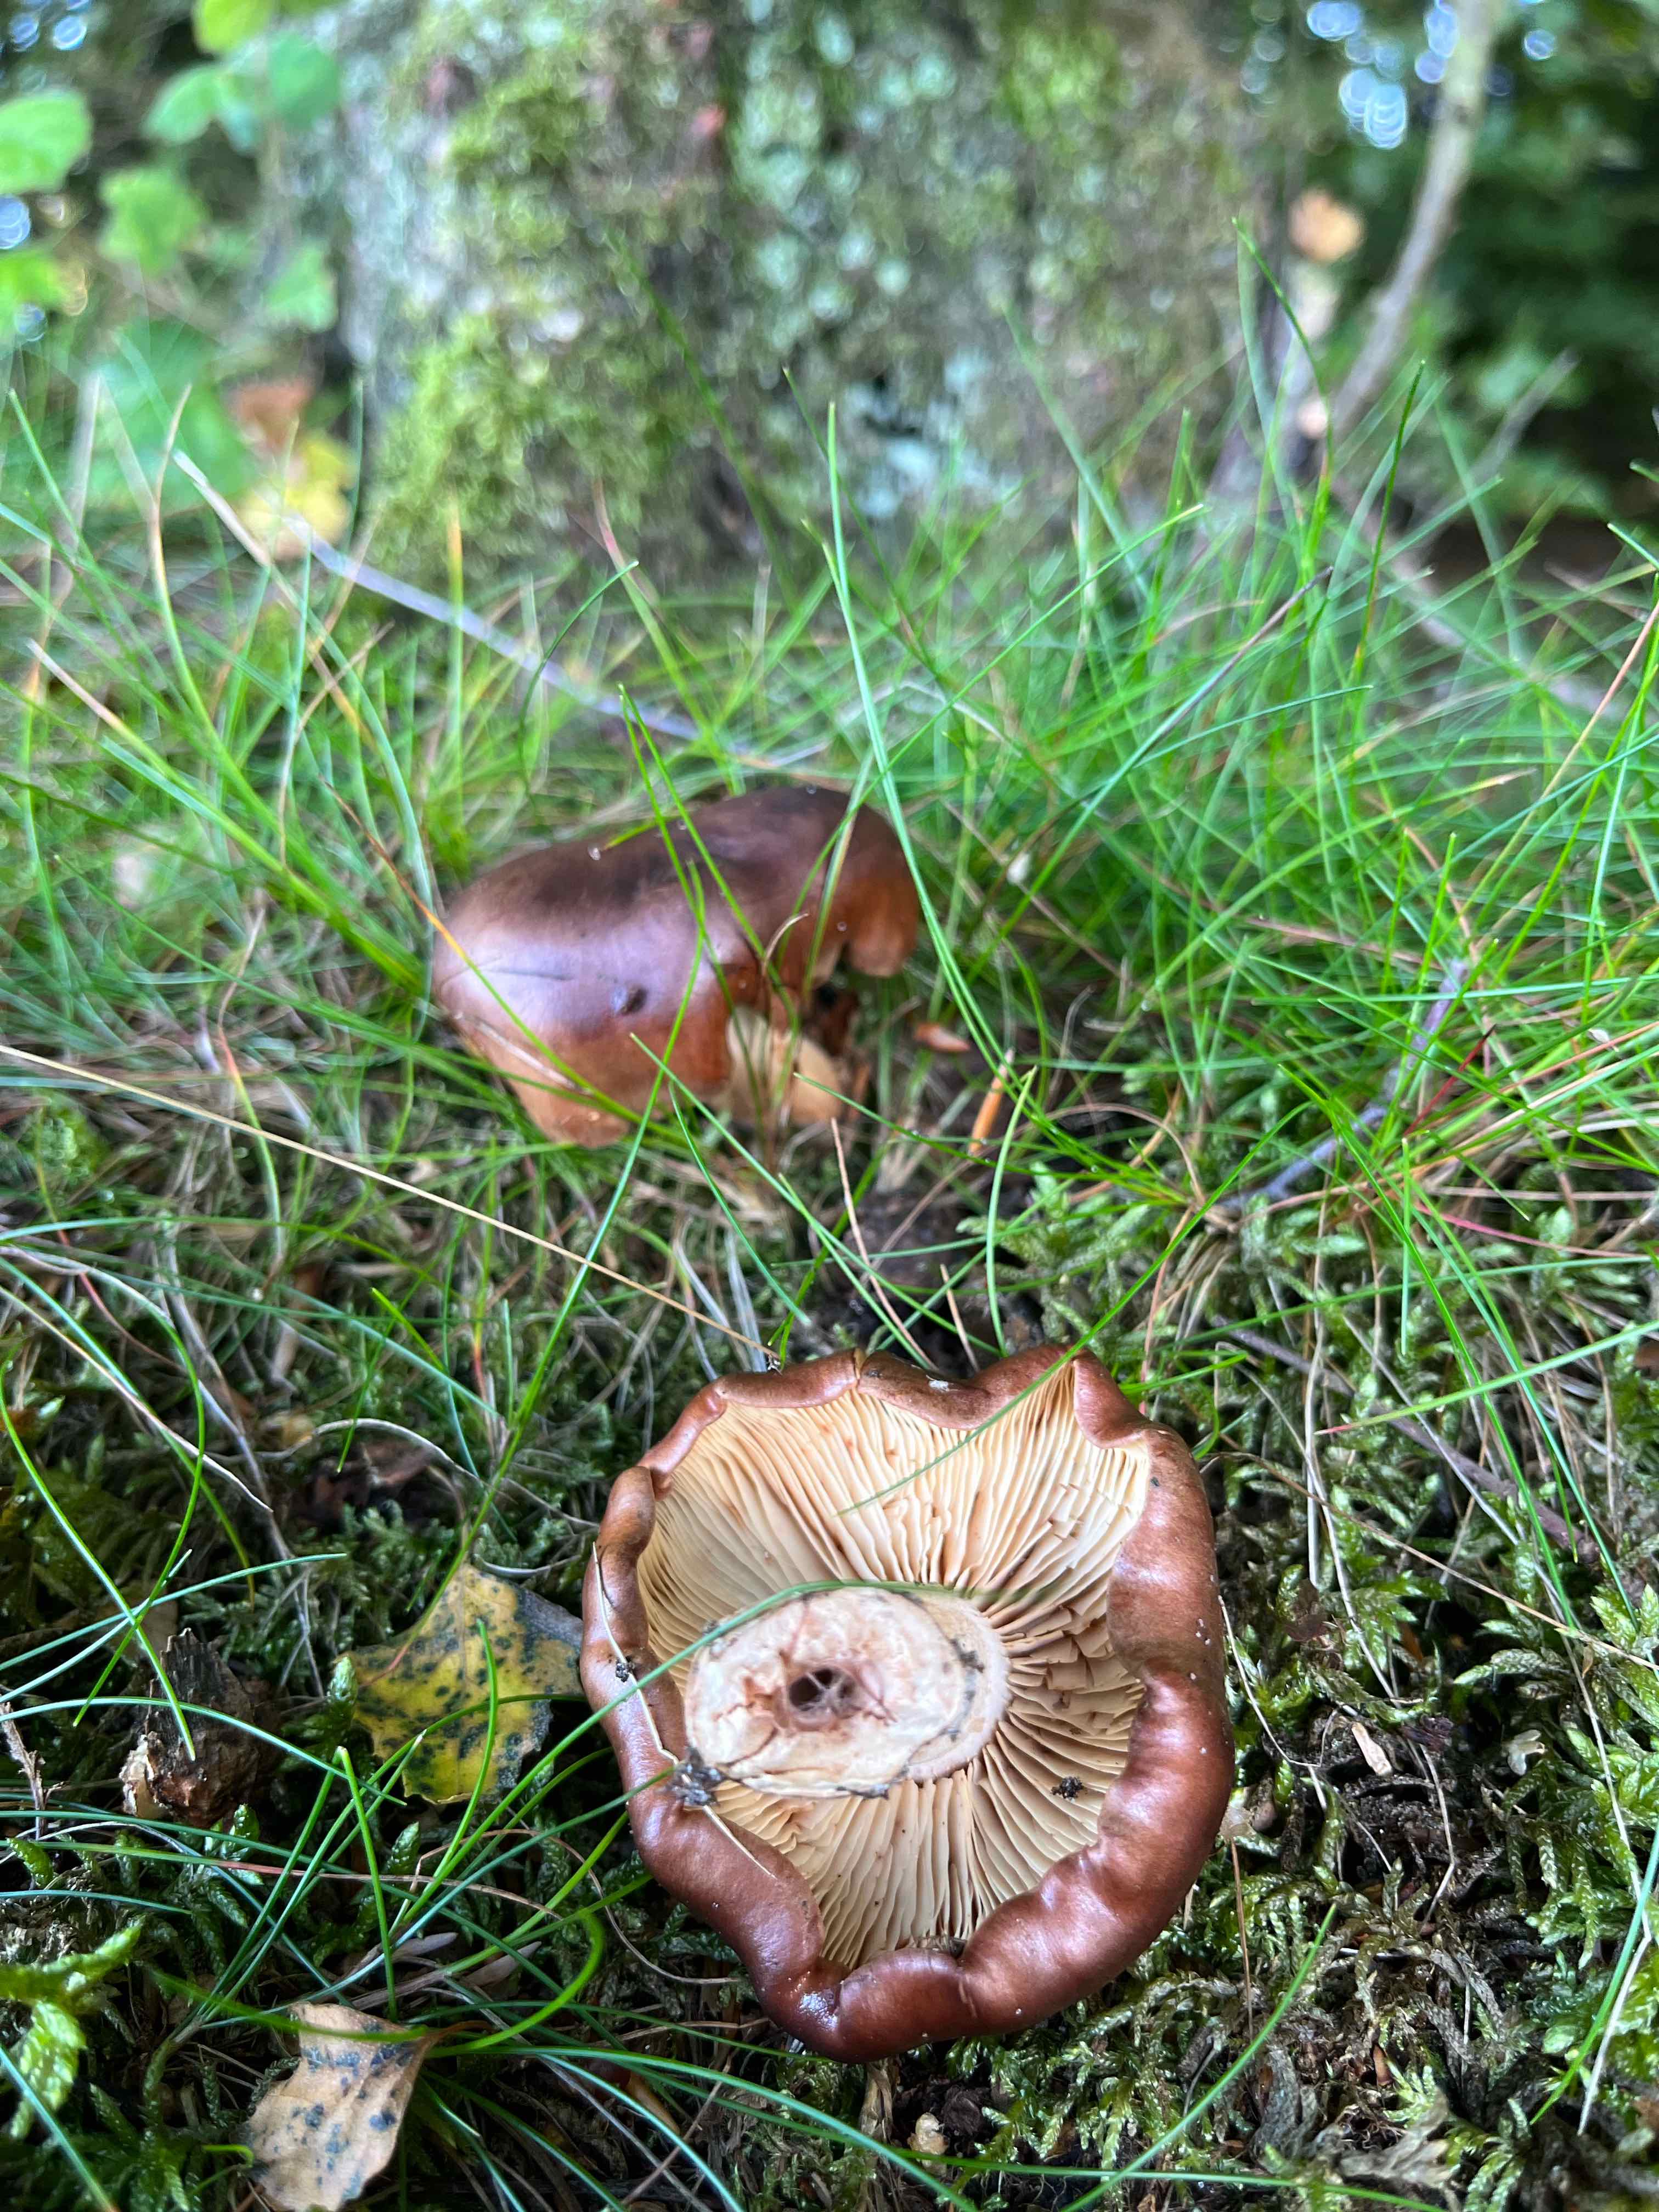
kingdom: Fungi
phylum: Basidiomycota
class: Agaricomycetes
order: Agaricales
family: Tricholomataceae
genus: Tricholoma
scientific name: Tricholoma fulvum
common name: birke-ridderhat
